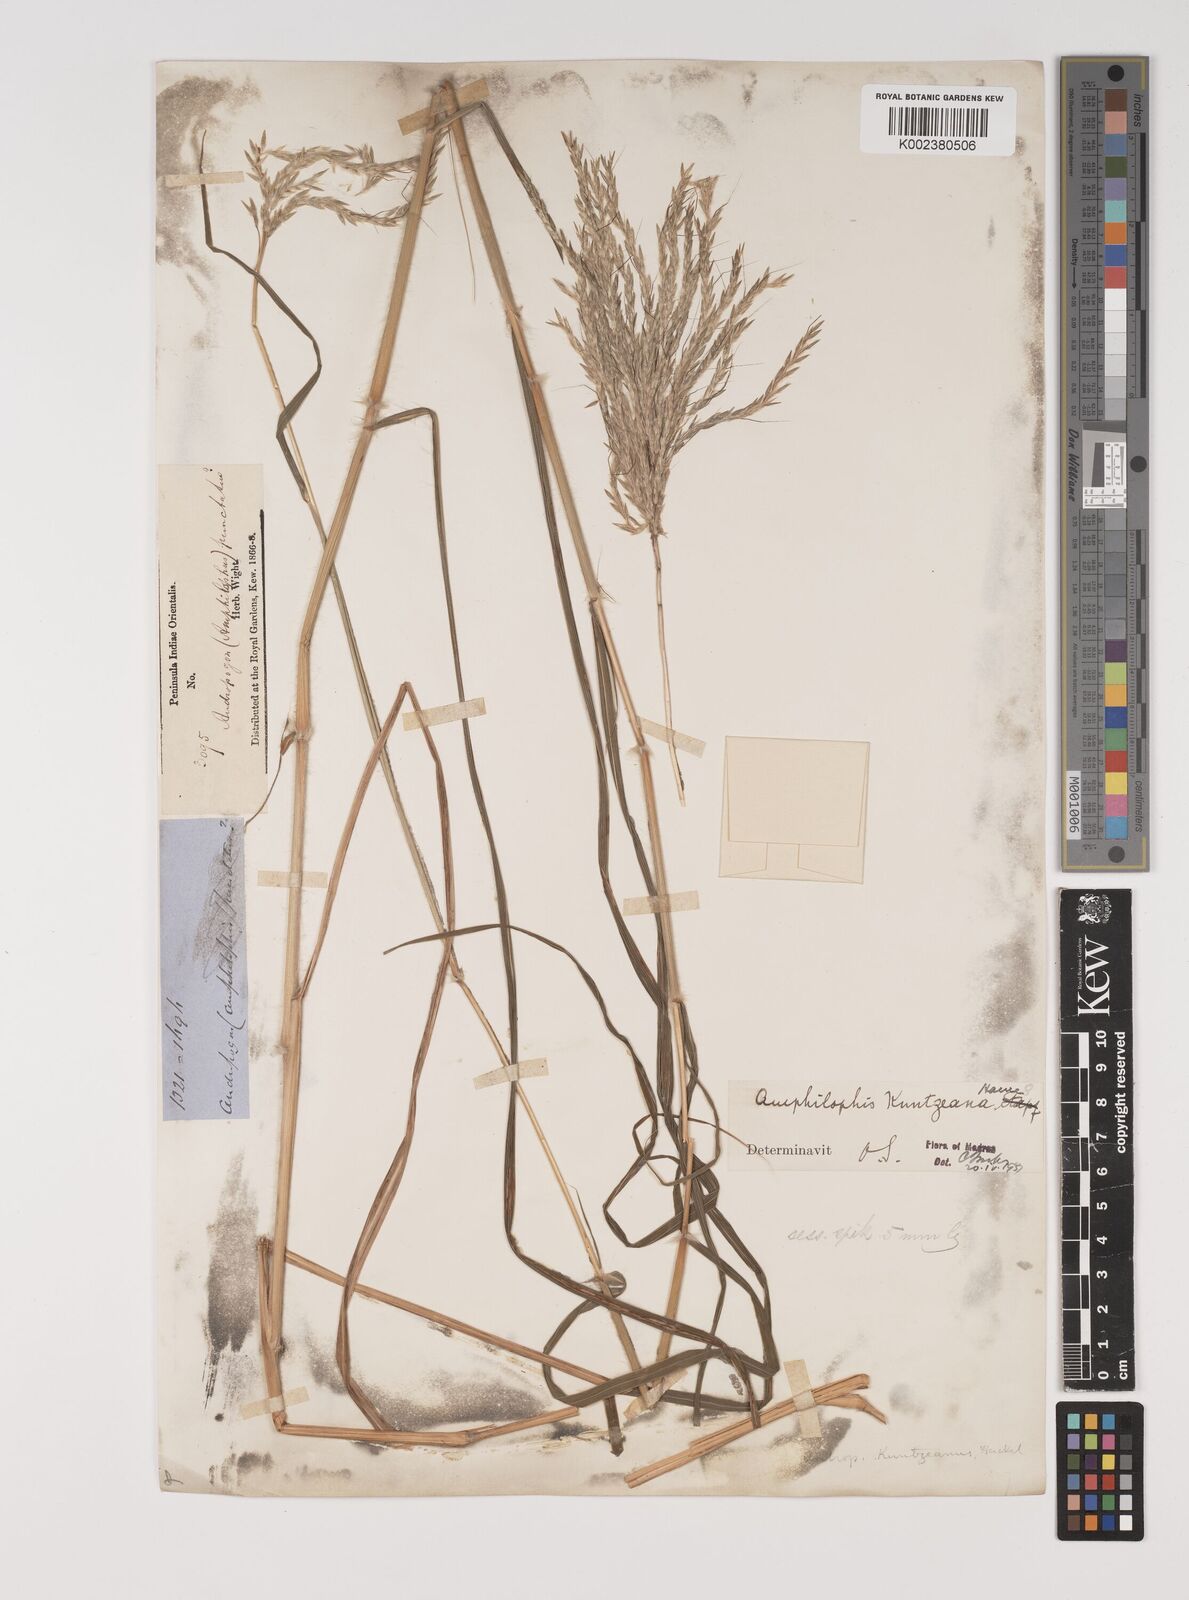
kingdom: Plantae
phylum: Tracheophyta
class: Liliopsida
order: Poales
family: Poaceae
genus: Bothriochloa
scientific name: Bothriochloa kuntzeana
